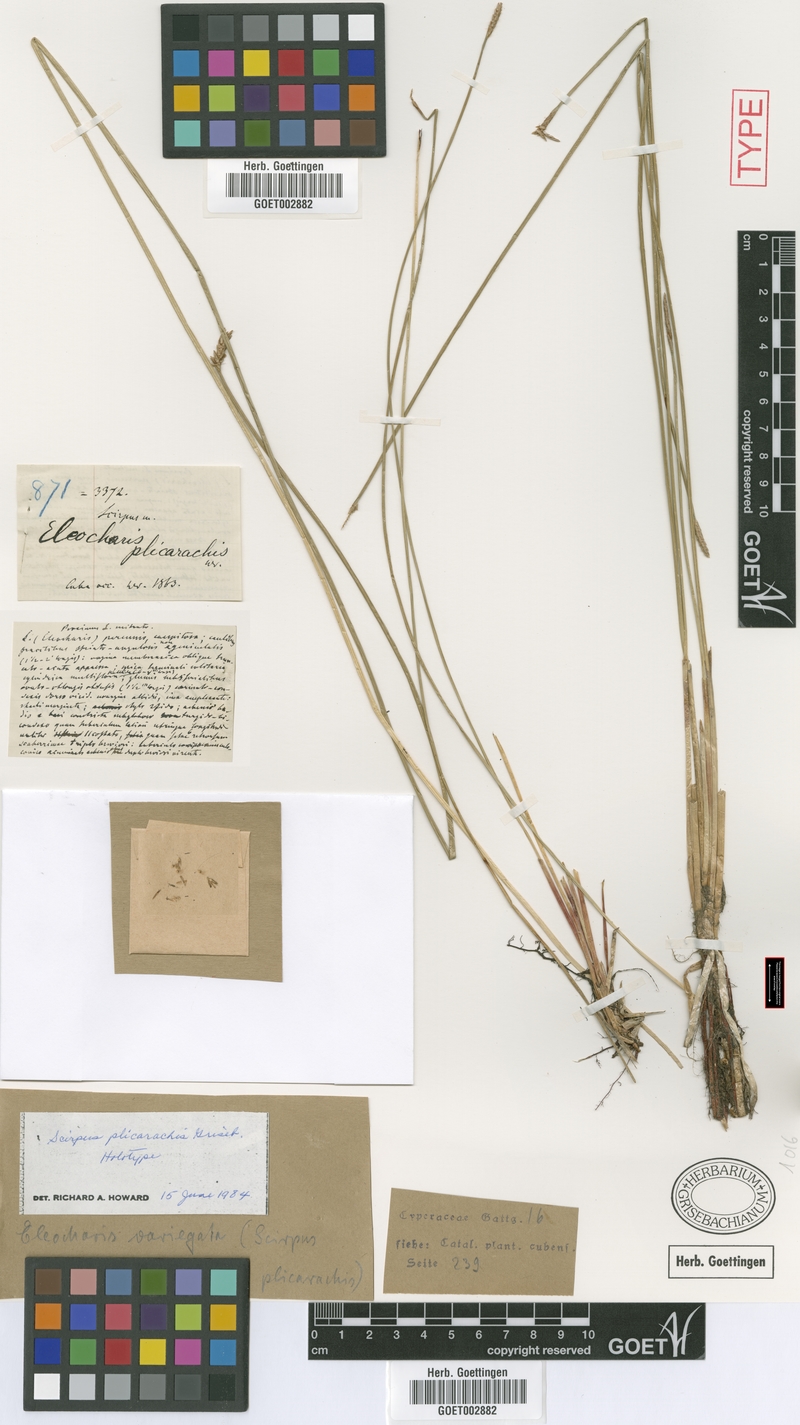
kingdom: Plantae
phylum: Tracheophyta
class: Liliopsida
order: Poales
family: Cyperaceae
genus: Eleocharis
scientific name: Eleocharis plicarhachis
